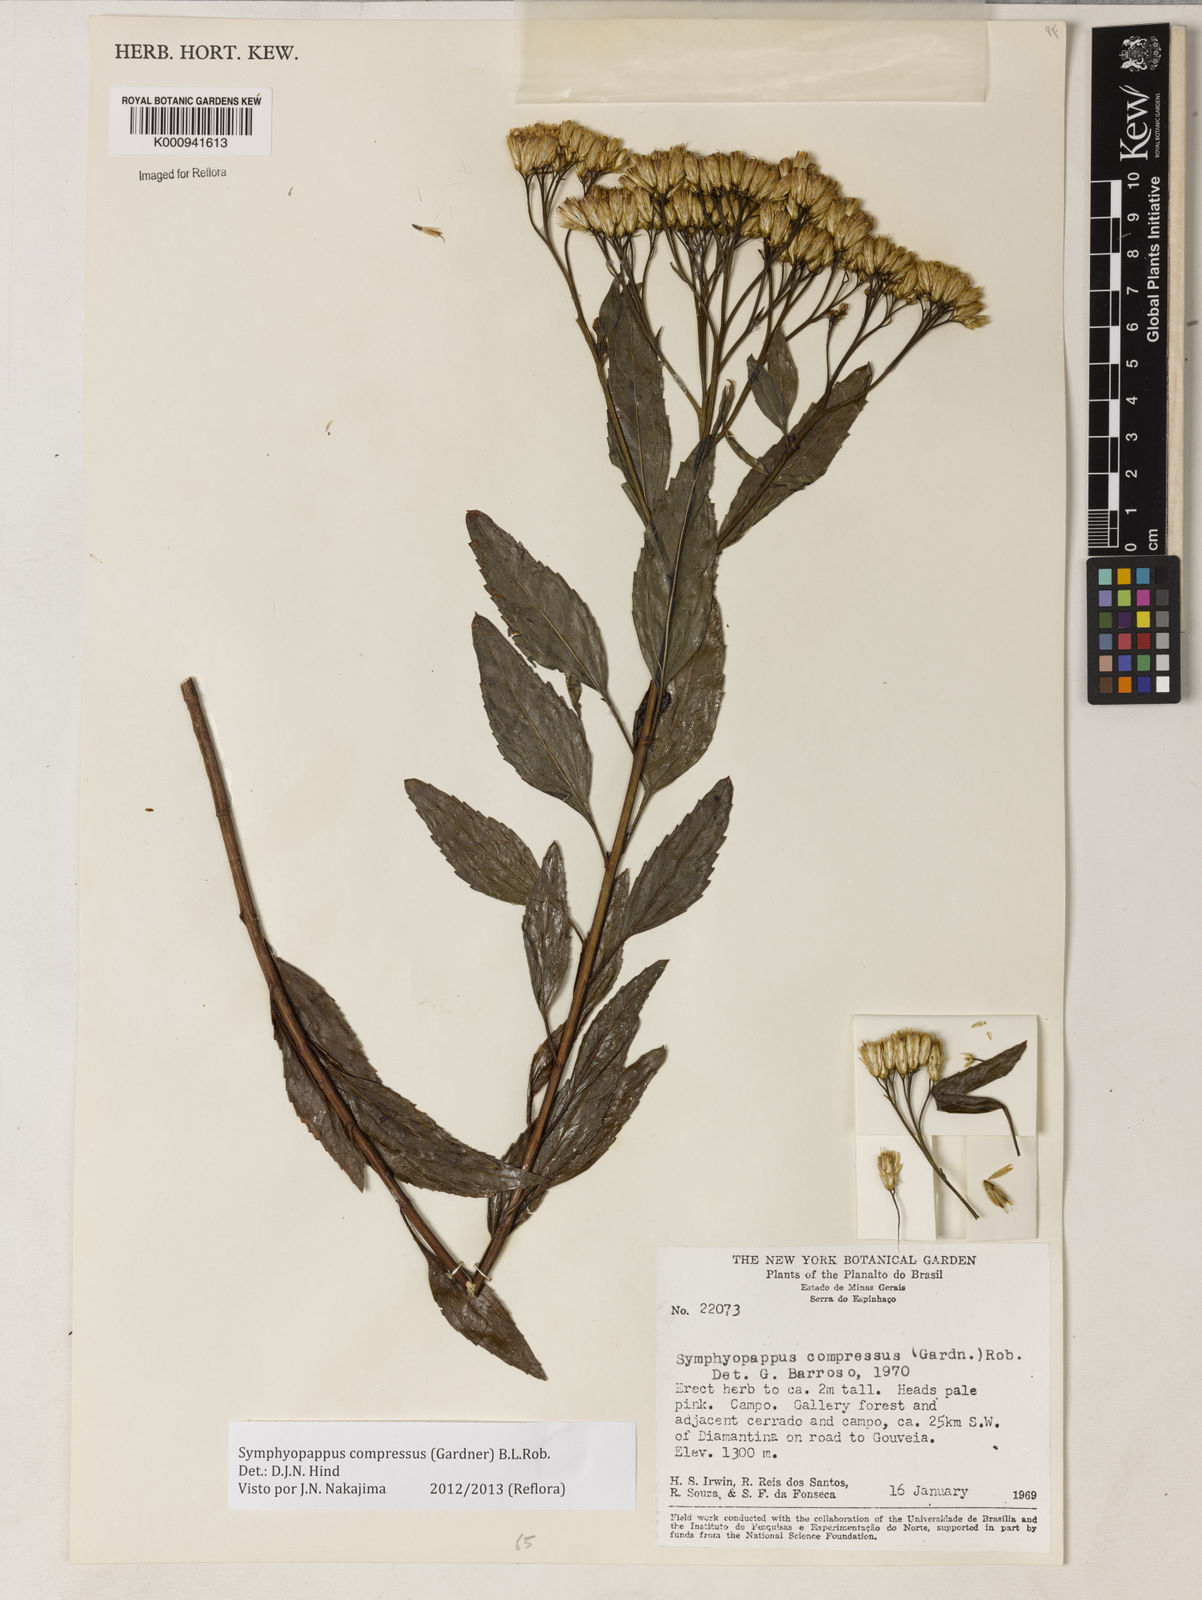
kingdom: Plantae
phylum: Tracheophyta
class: Magnoliopsida
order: Asterales
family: Asteraceae
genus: Symphyopappus
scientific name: Symphyopappus compressus
